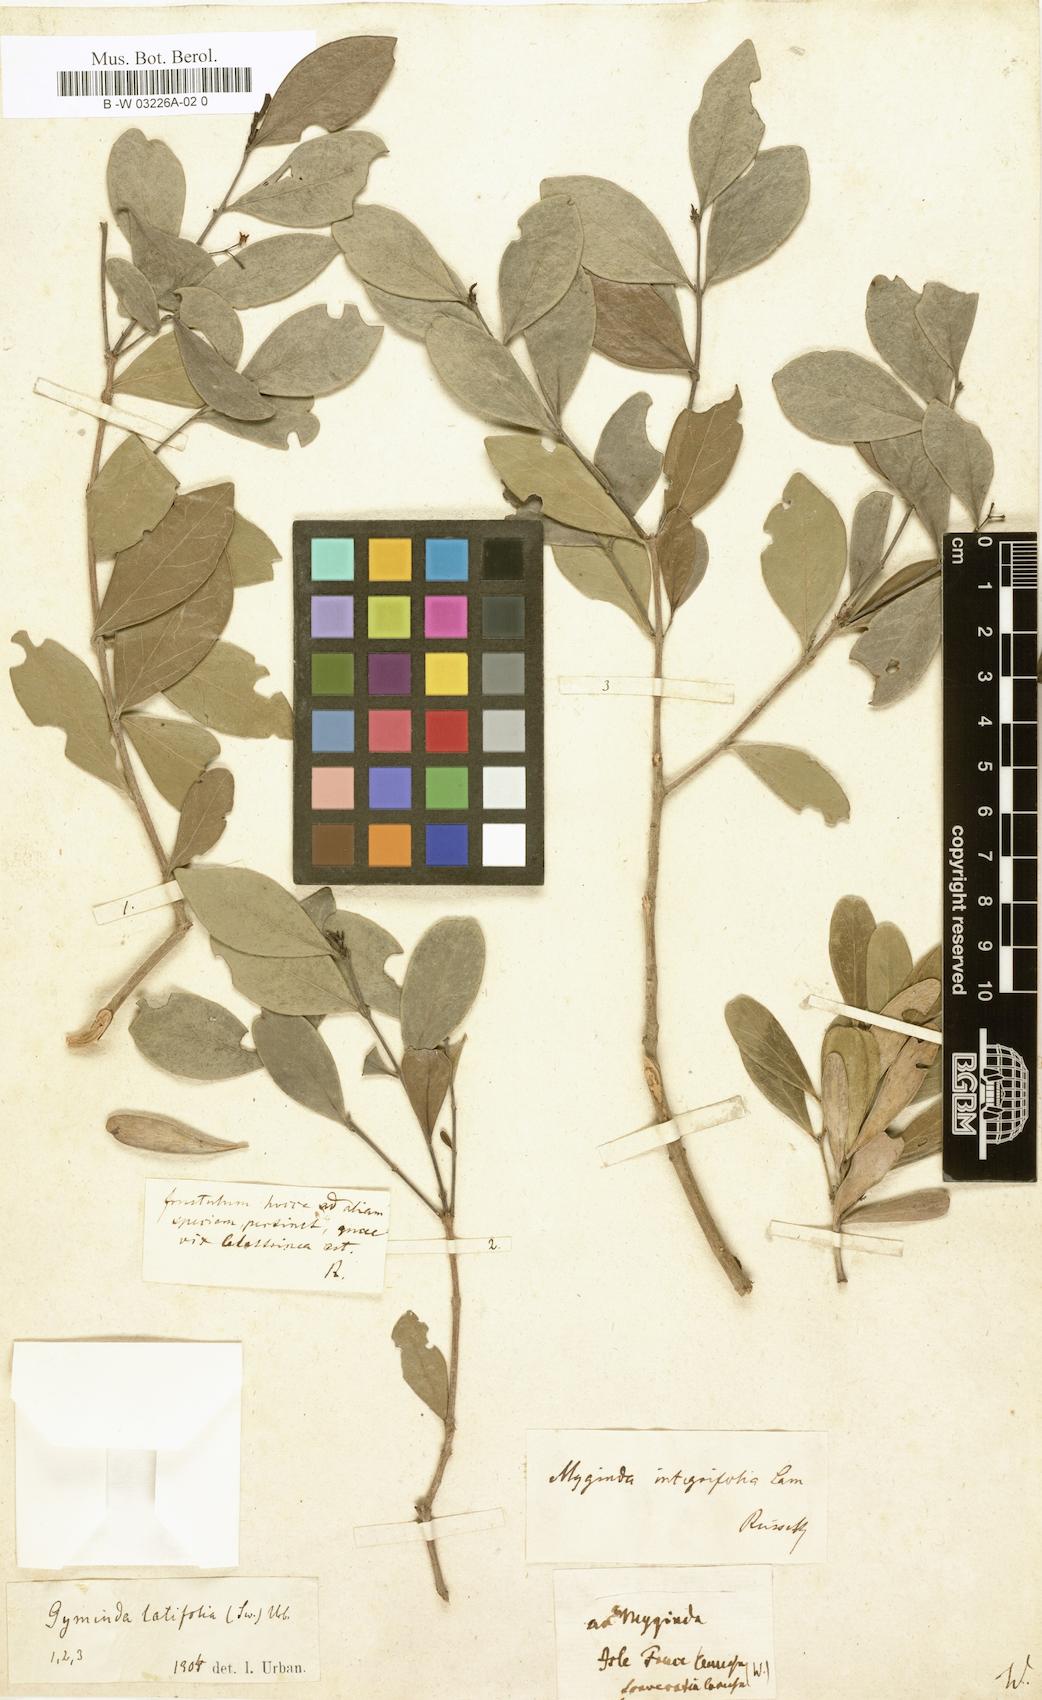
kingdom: Plantae
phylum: Tracheophyta
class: Magnoliopsida
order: Celastrales
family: Celastraceae
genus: Gyminda
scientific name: Gyminda latifolia
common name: False boxwood
